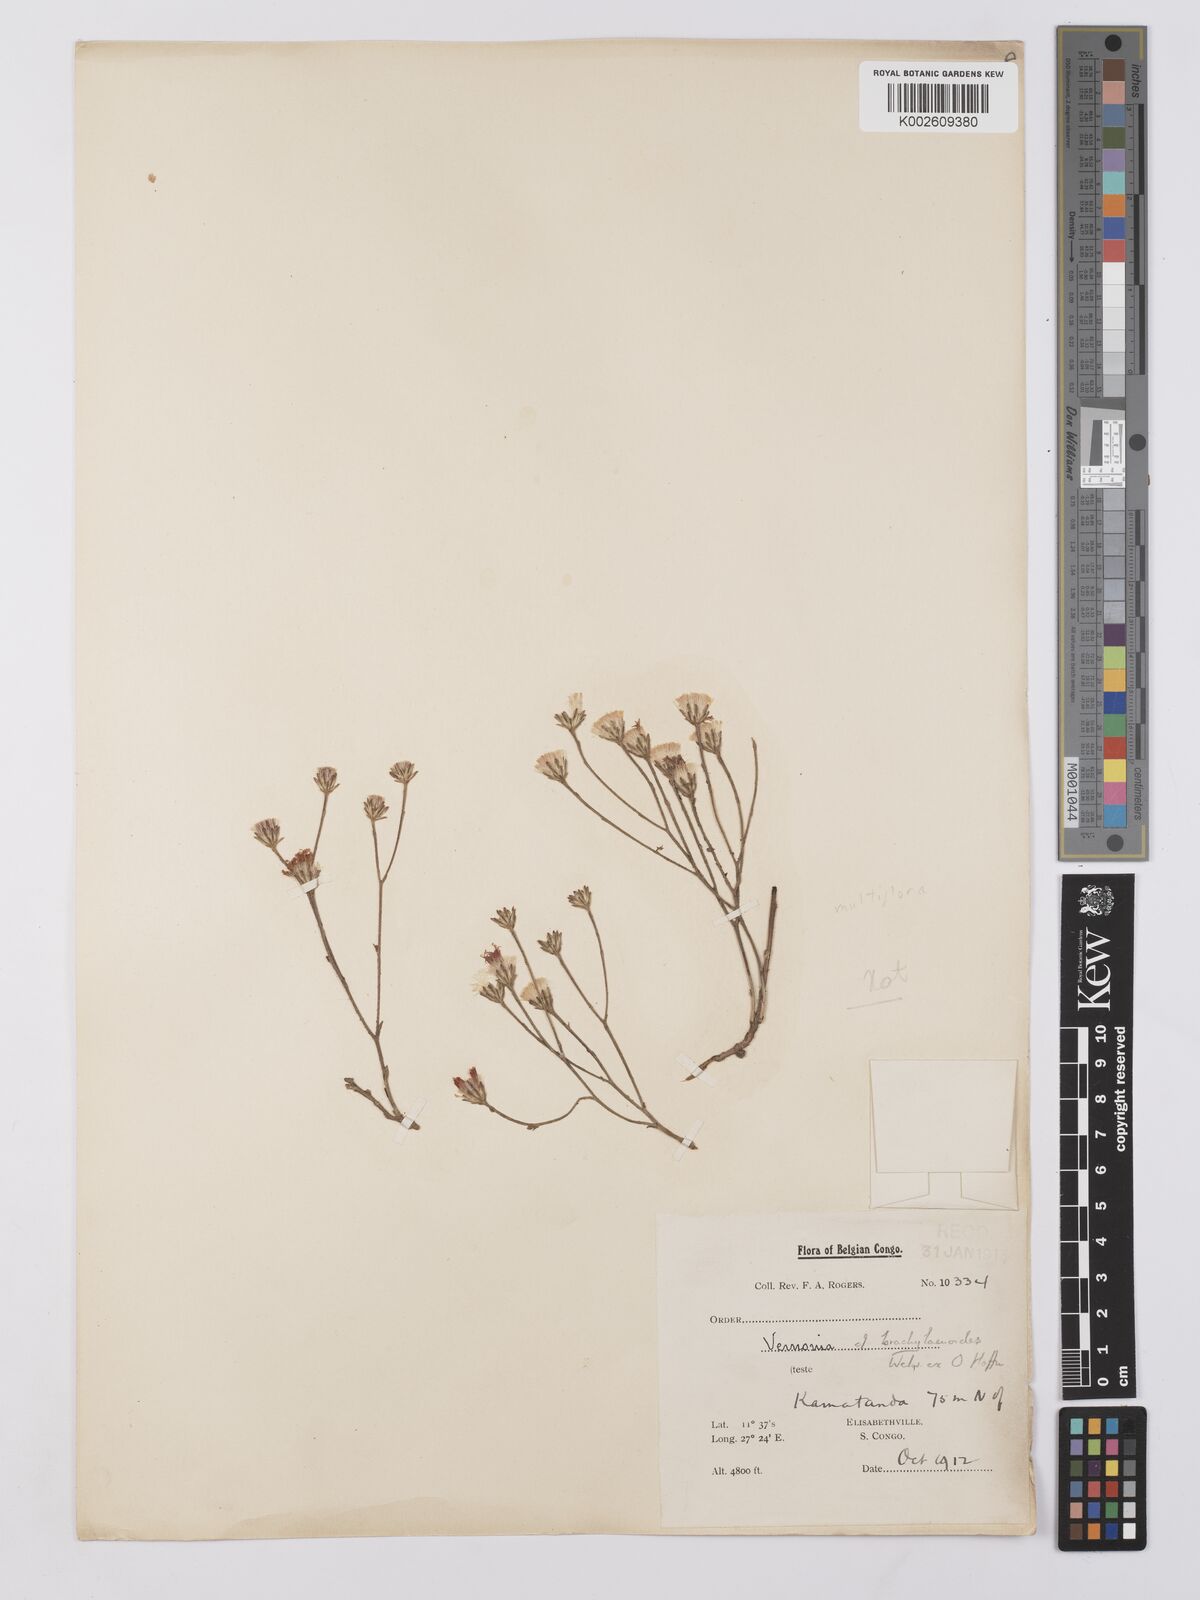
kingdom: Plantae
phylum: Tracheophyta
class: Magnoliopsida
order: Asterales
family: Asteraceae
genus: Vernonia
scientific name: Vernonia suprafastigiata
